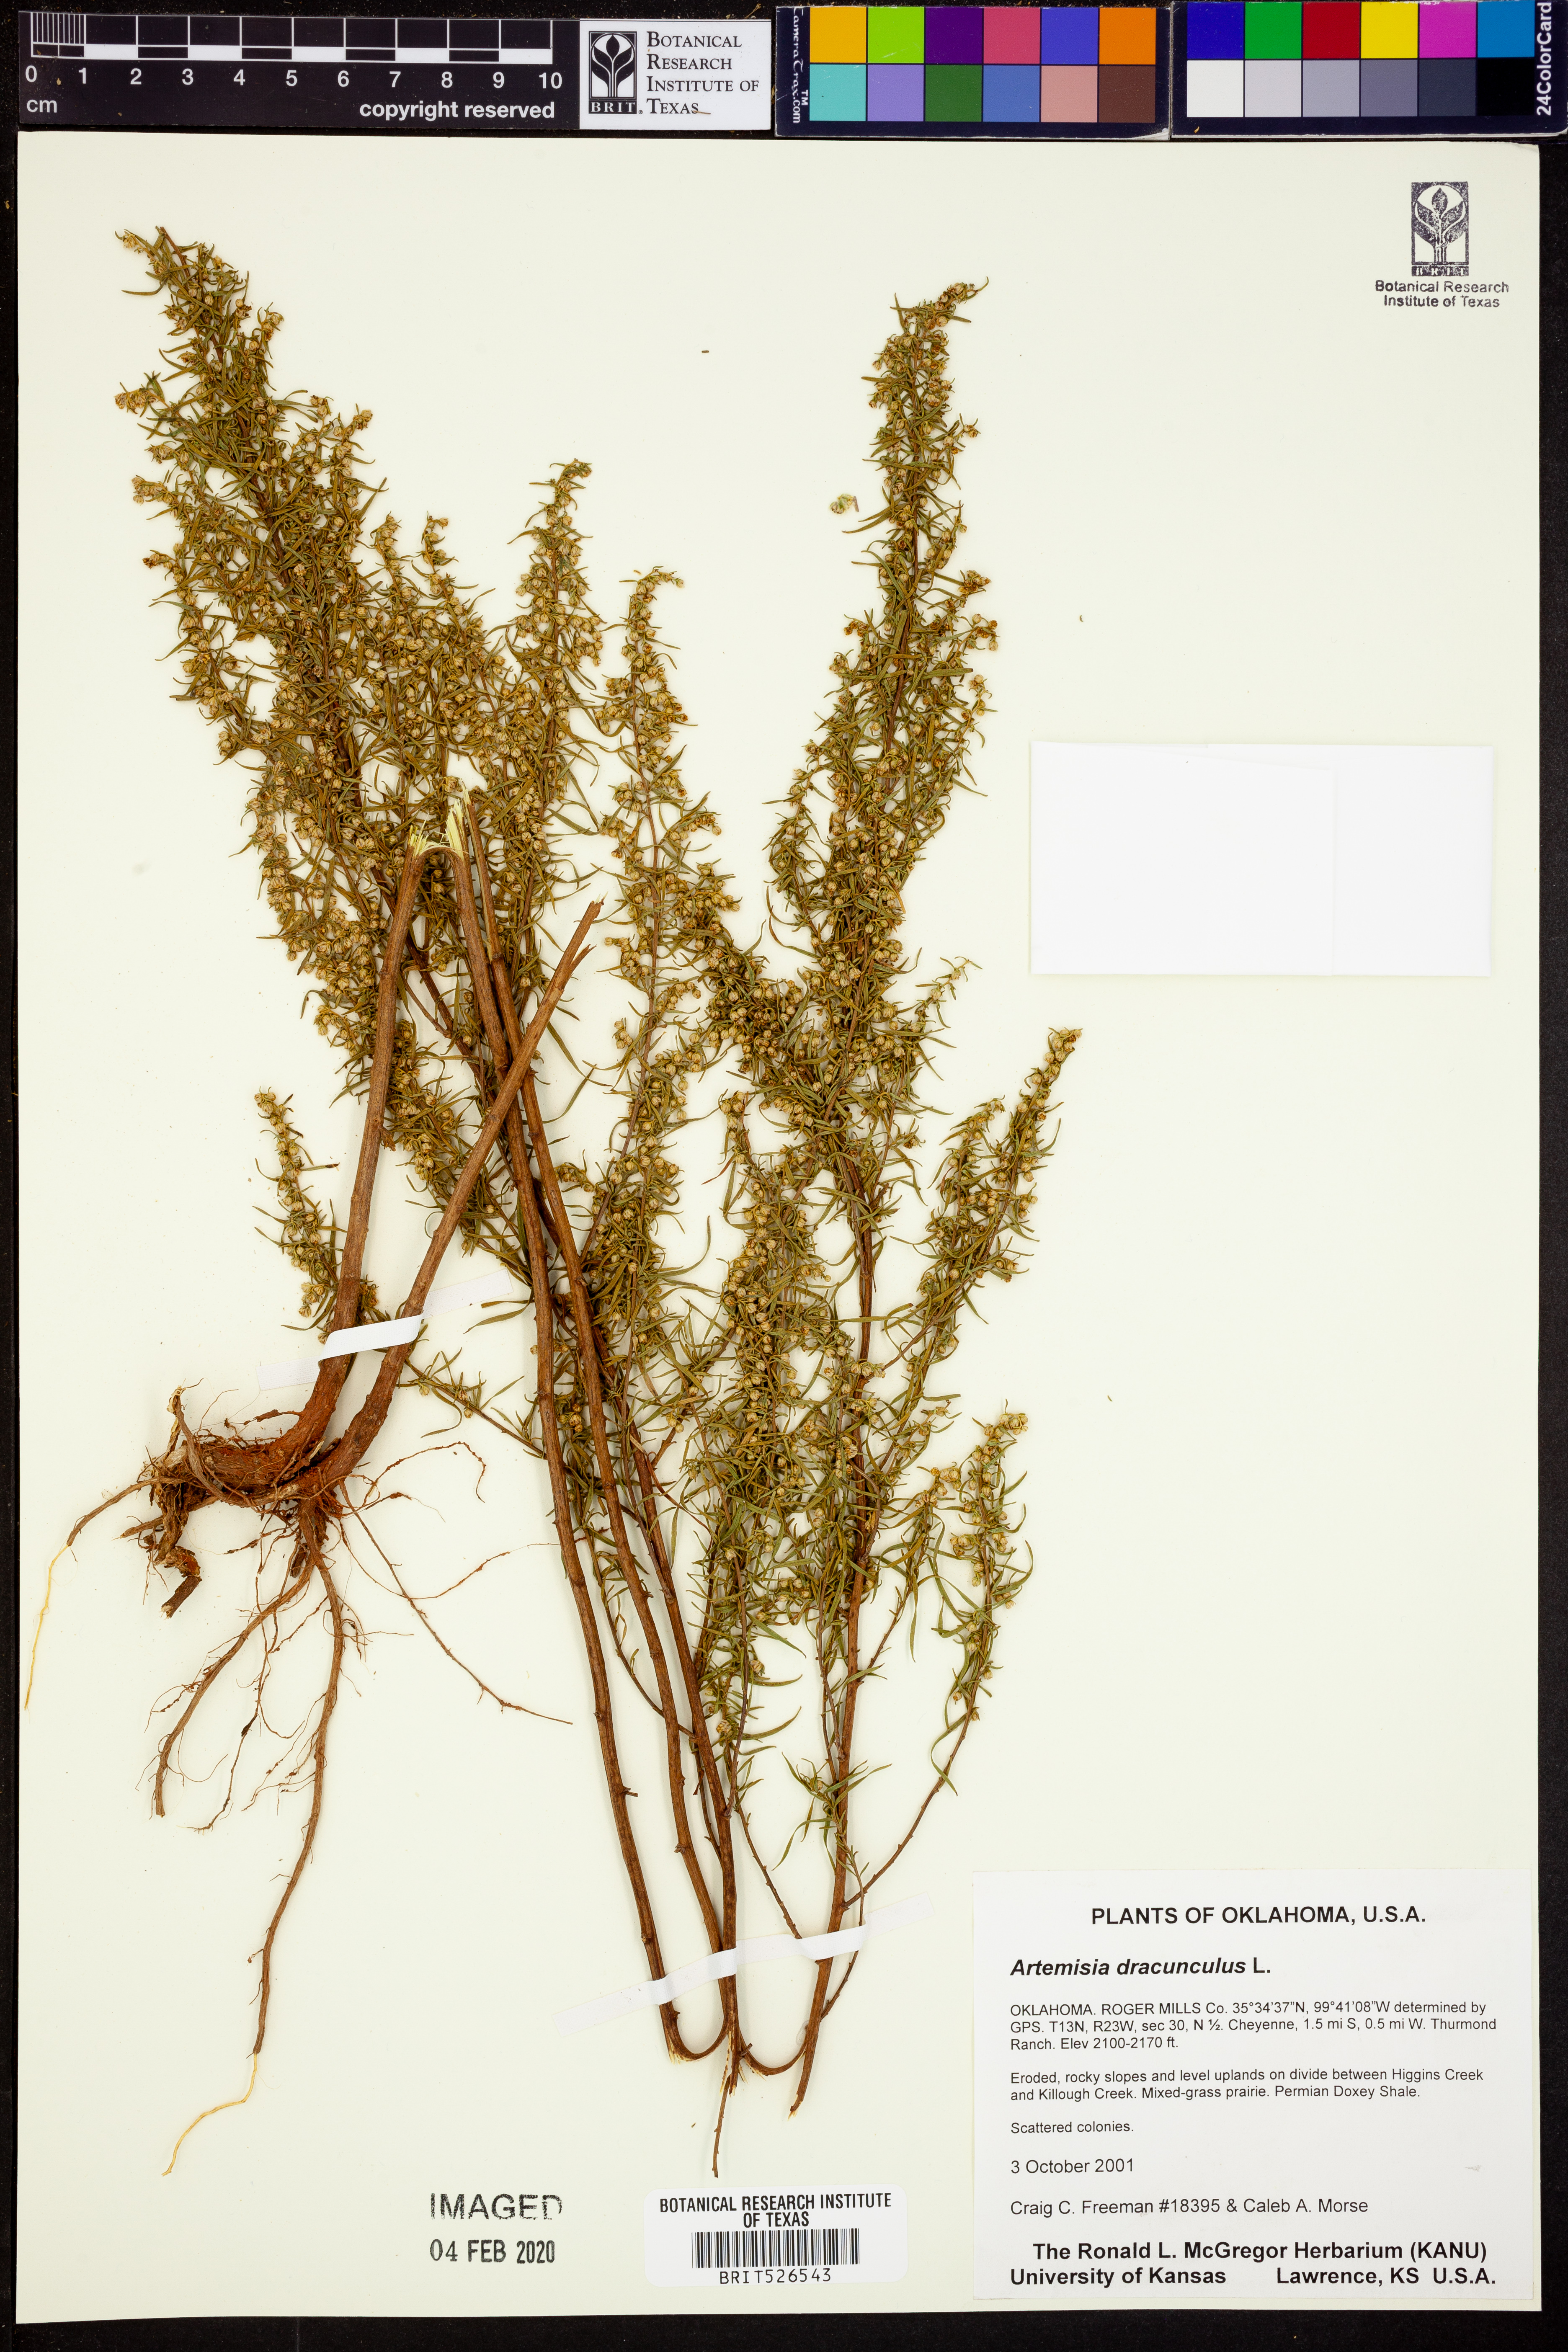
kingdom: Plantae
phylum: Tracheophyta
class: Magnoliopsida
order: Asterales
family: Asteraceae
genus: Artemisia
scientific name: Artemisia dracunculus
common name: Tarragon
